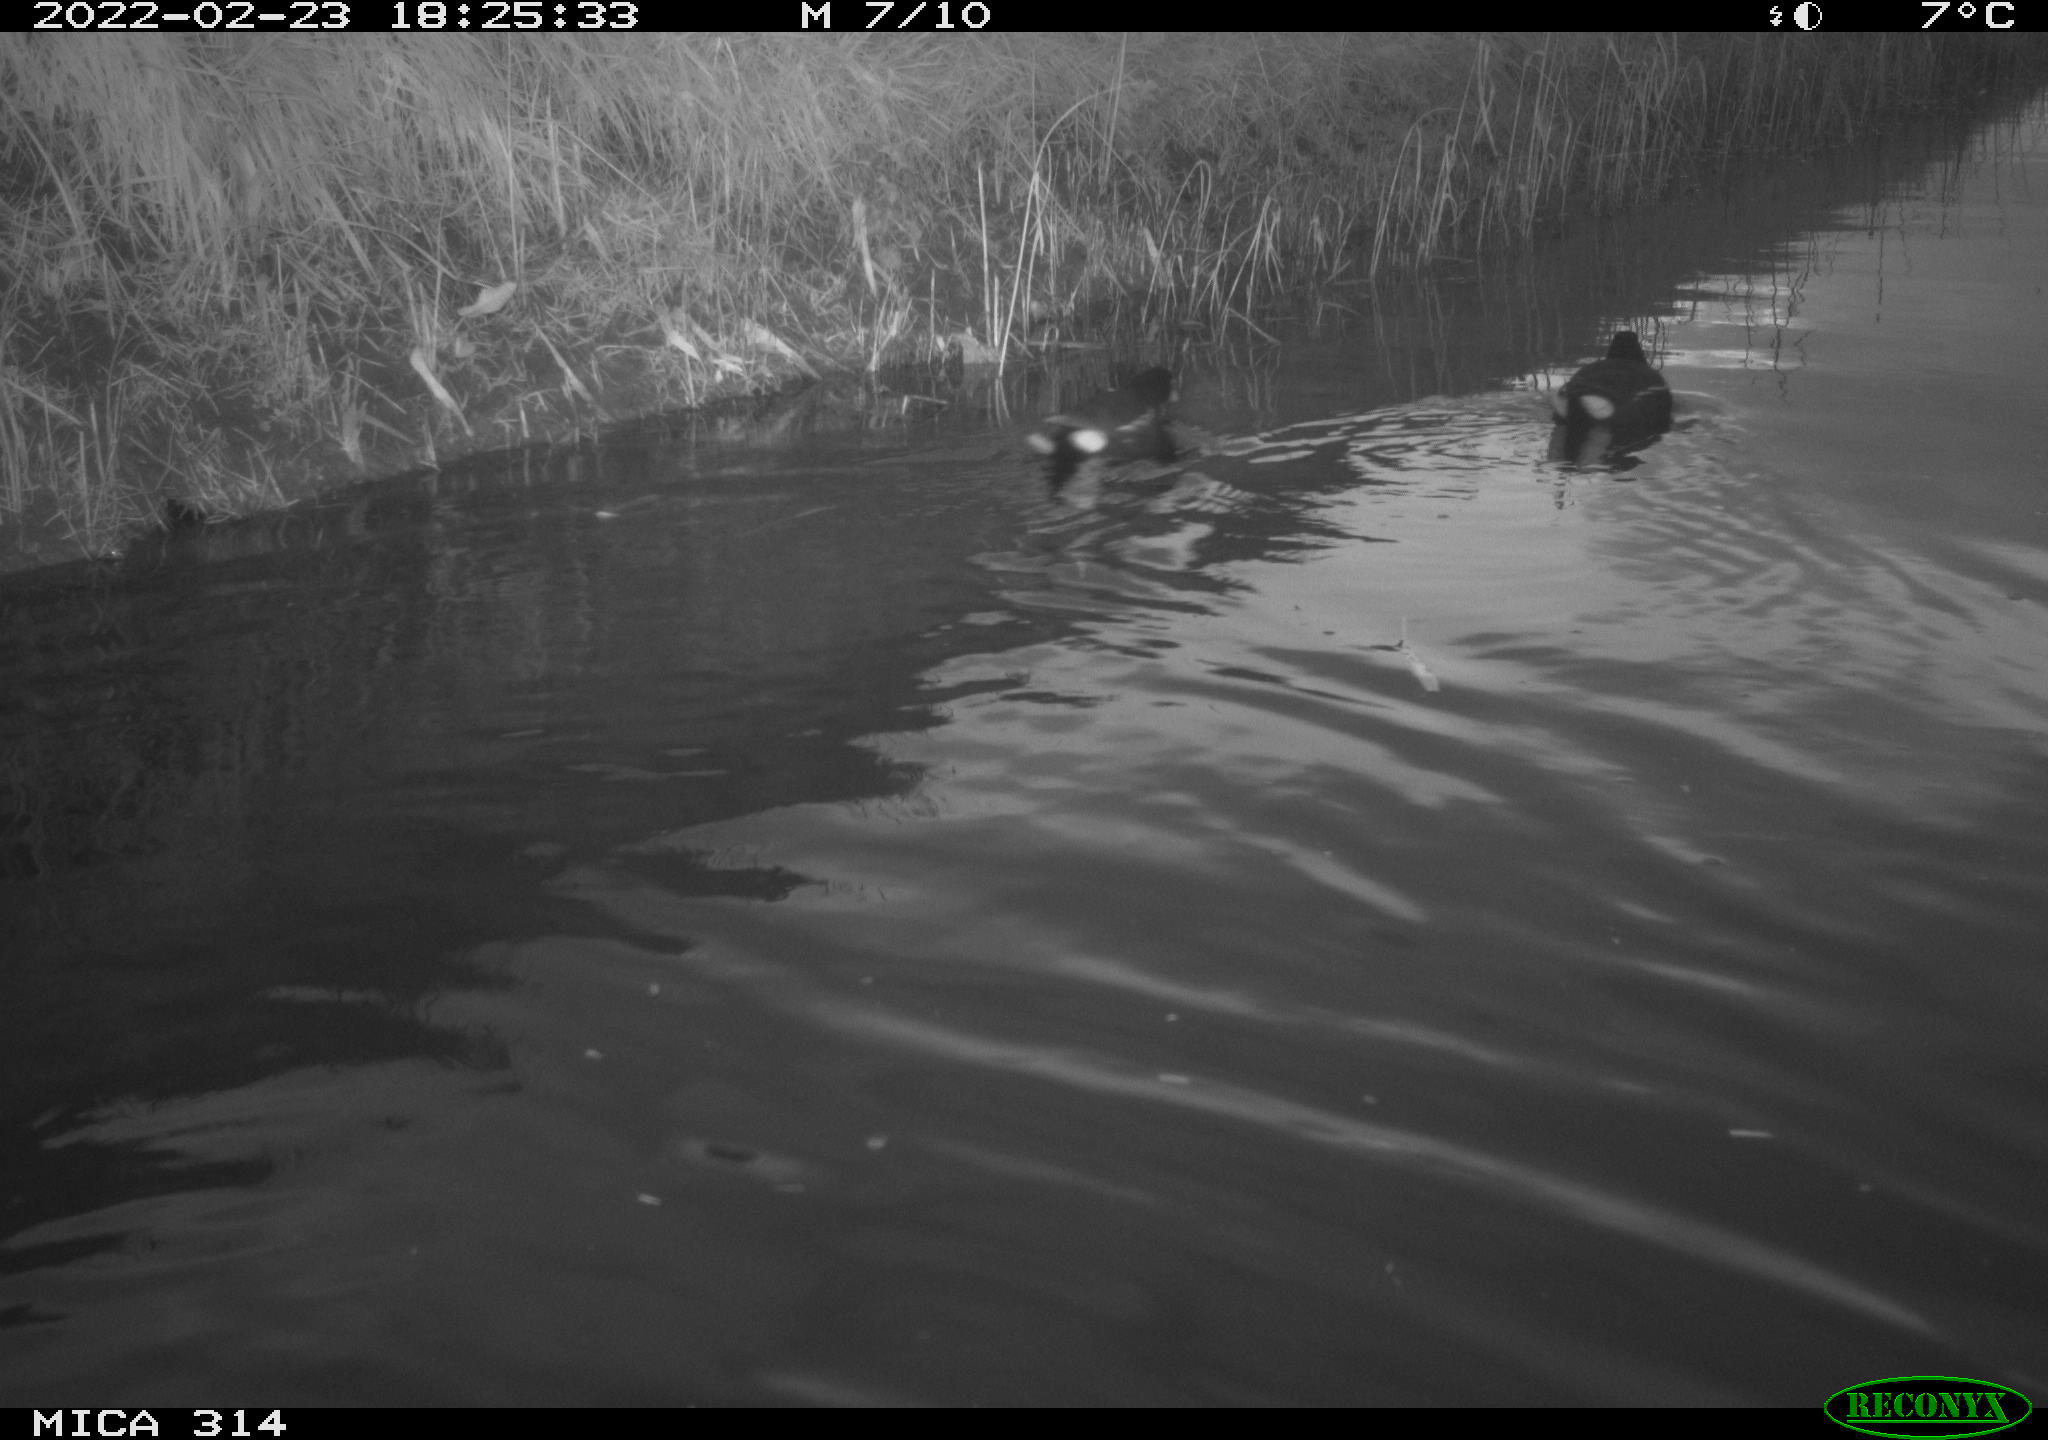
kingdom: Animalia
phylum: Chordata
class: Aves
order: Gruiformes
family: Rallidae
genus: Gallinula
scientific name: Gallinula chloropus
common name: Common moorhen
